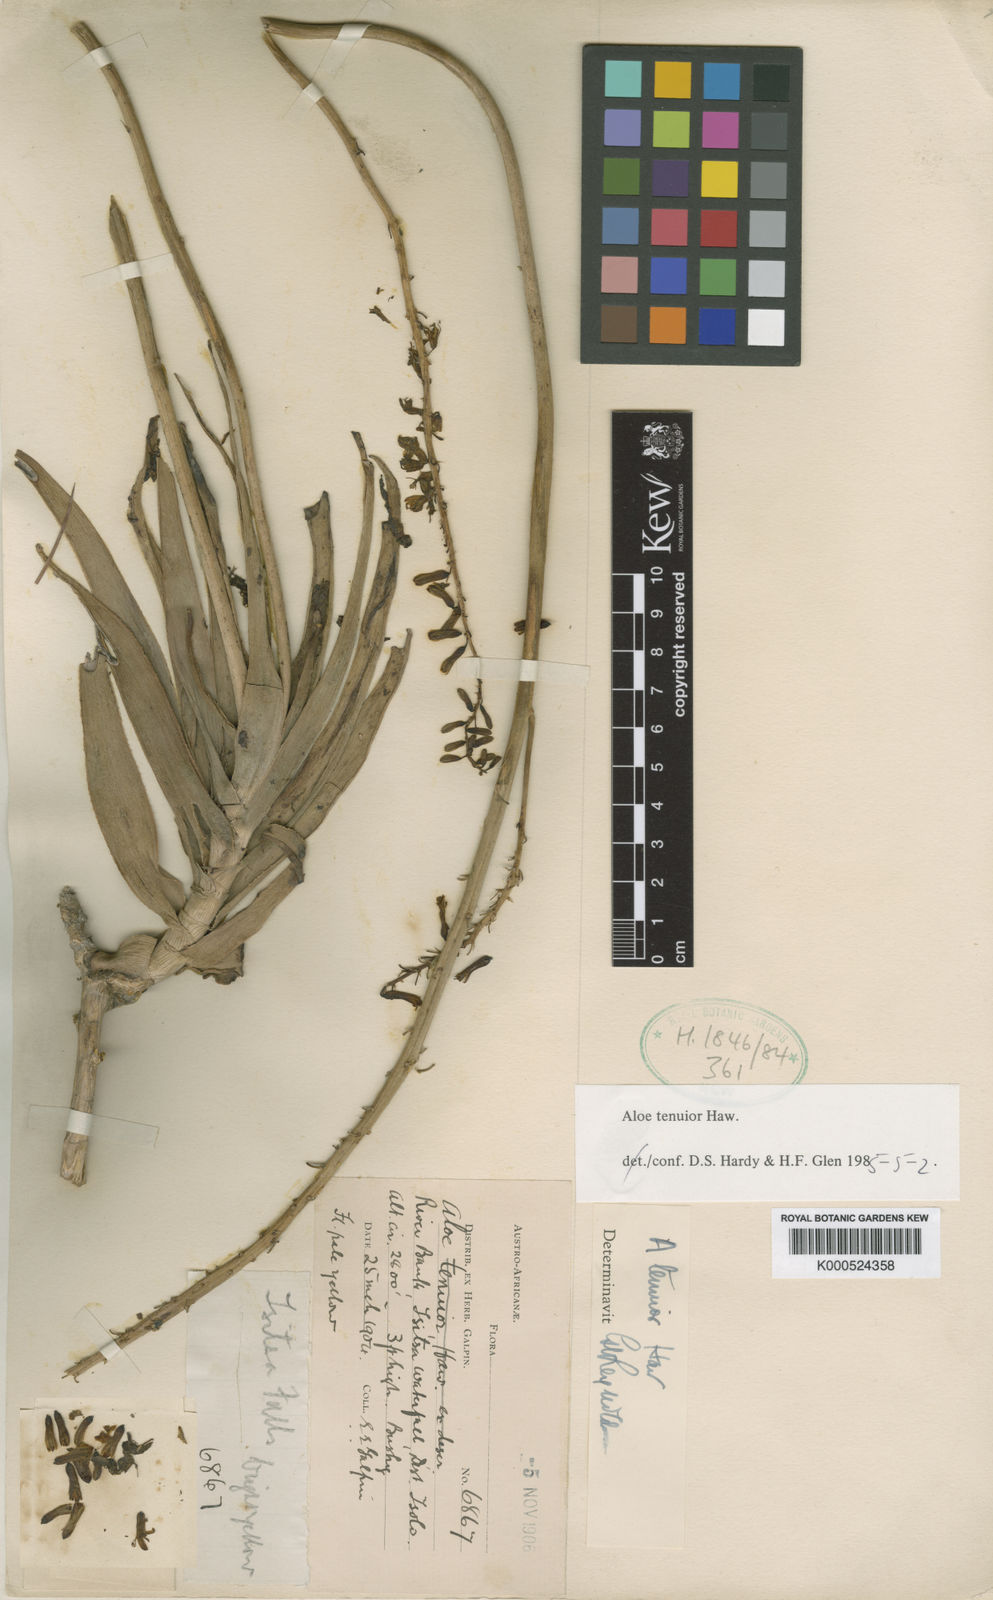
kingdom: Plantae
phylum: Tracheophyta
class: Liliopsida
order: Asparagales
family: Asphodelaceae
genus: Aloiampelos
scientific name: Aloiampelos tenuior
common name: Fence aloe
